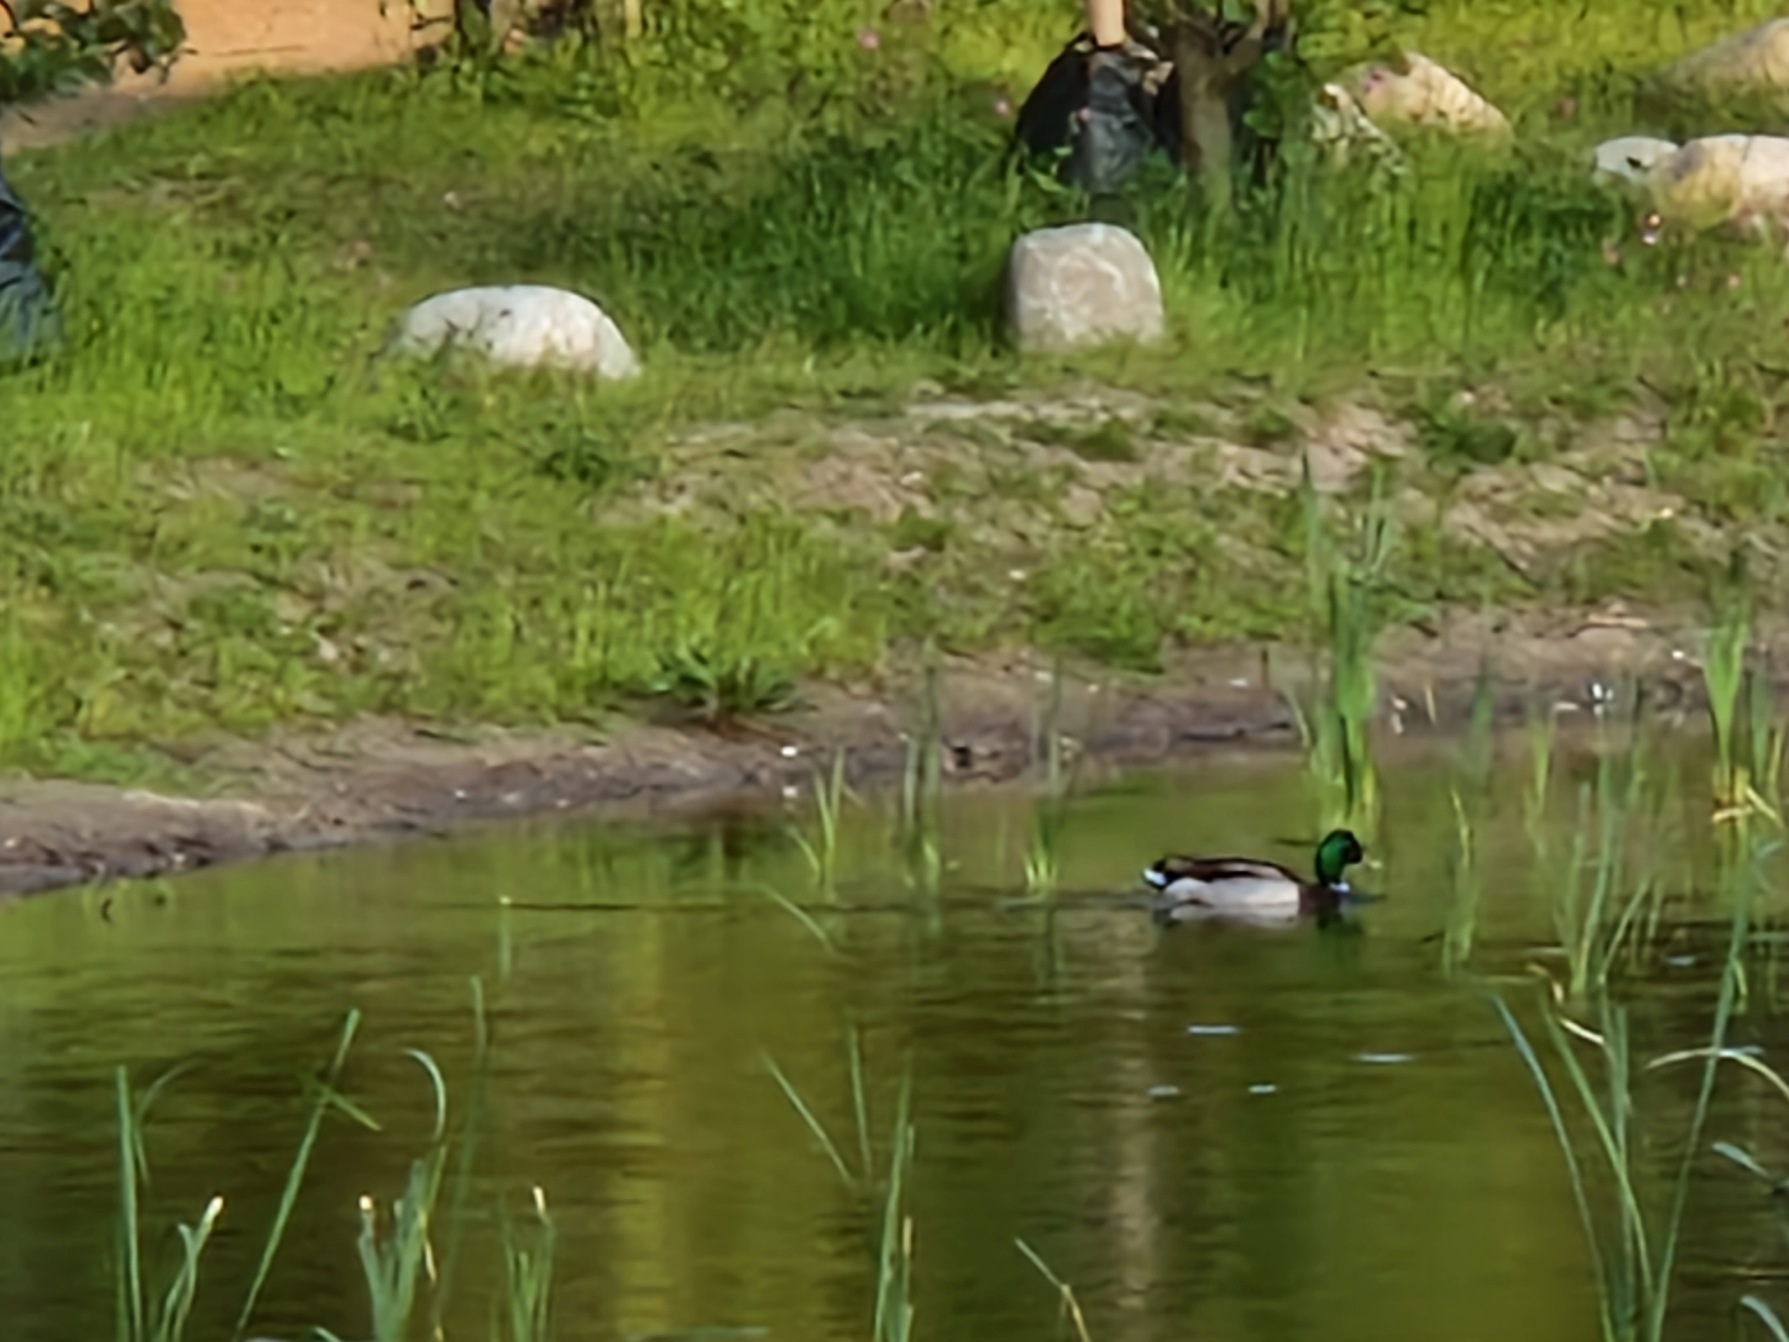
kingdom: Animalia
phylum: Chordata
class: Aves
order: Anseriformes
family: Anatidae
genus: Anas
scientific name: Anas platyrhynchos
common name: Gråand
